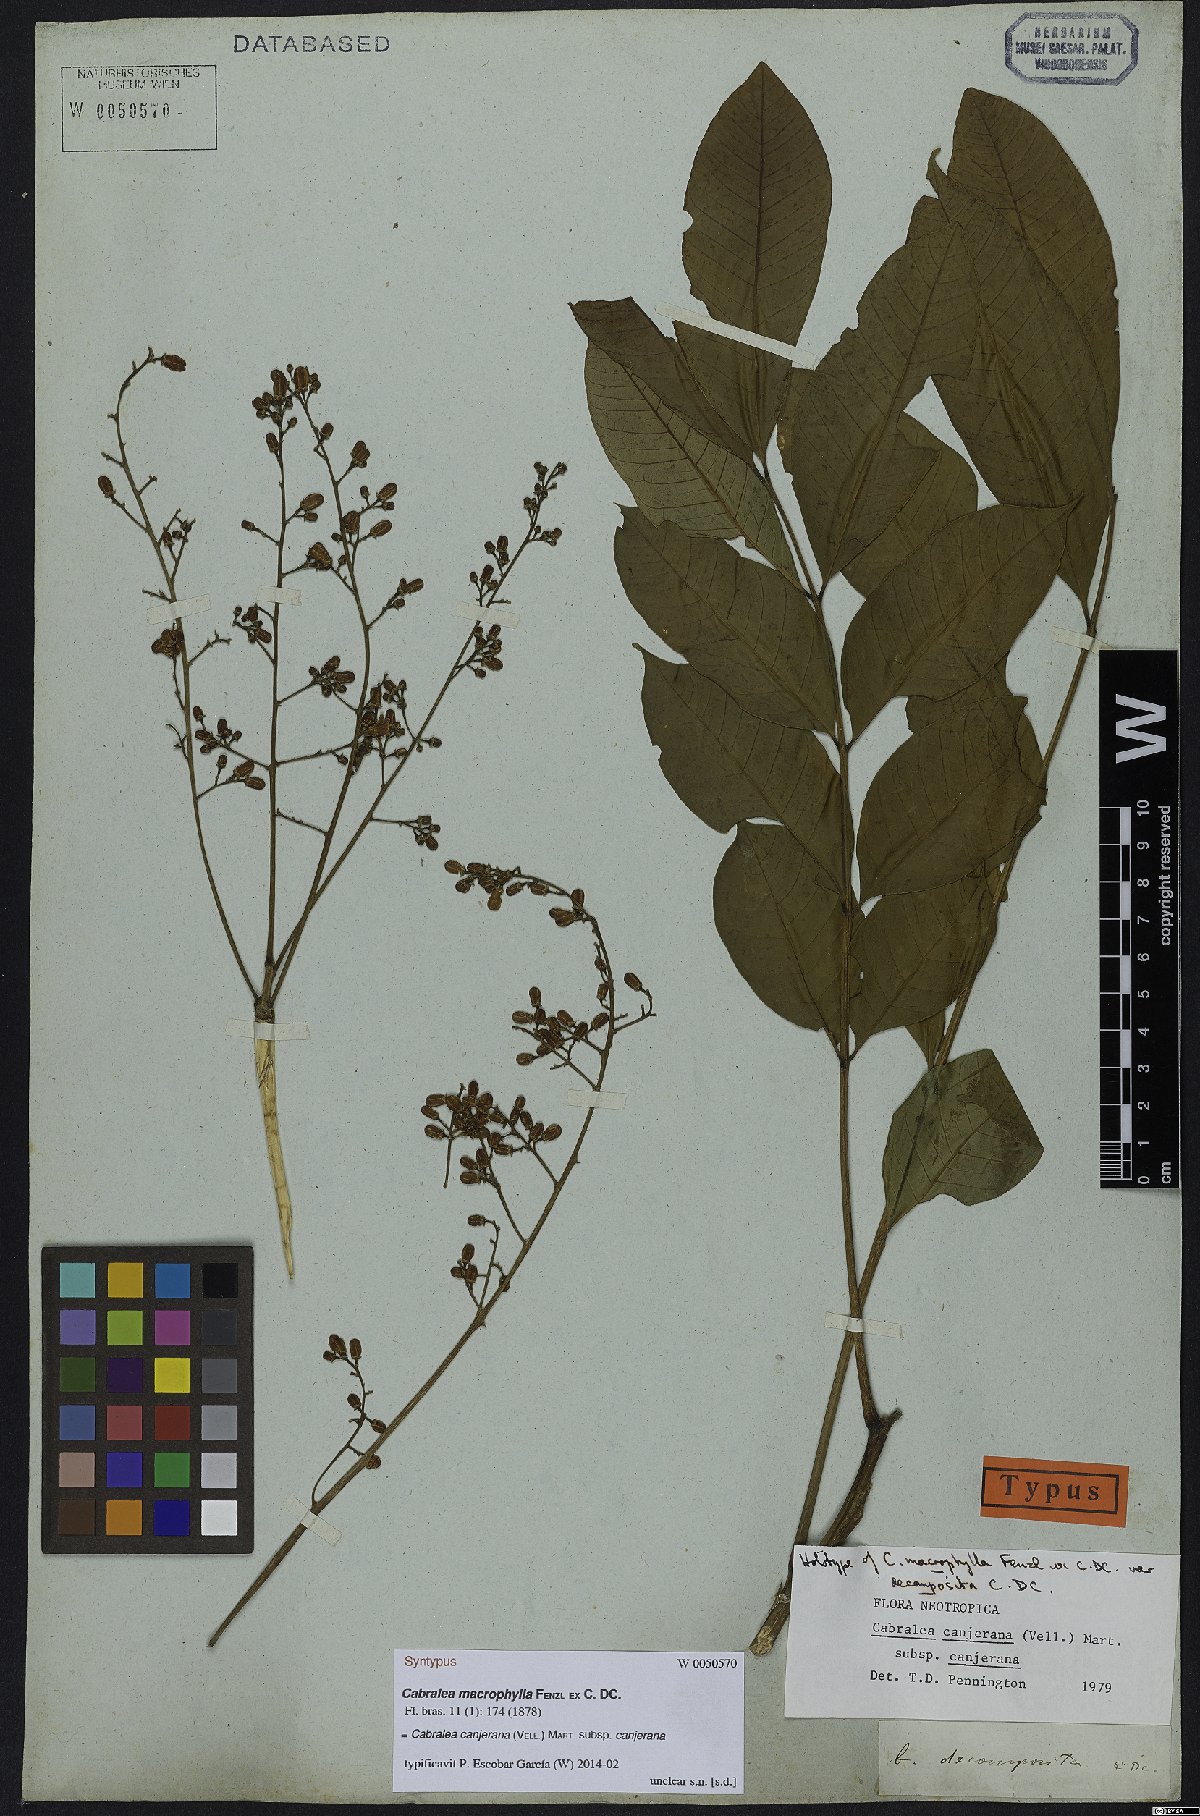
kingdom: Plantae
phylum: Tracheophyta
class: Magnoliopsida
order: Sapindales
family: Meliaceae
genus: Cabralea
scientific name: Cabralea canjerana
